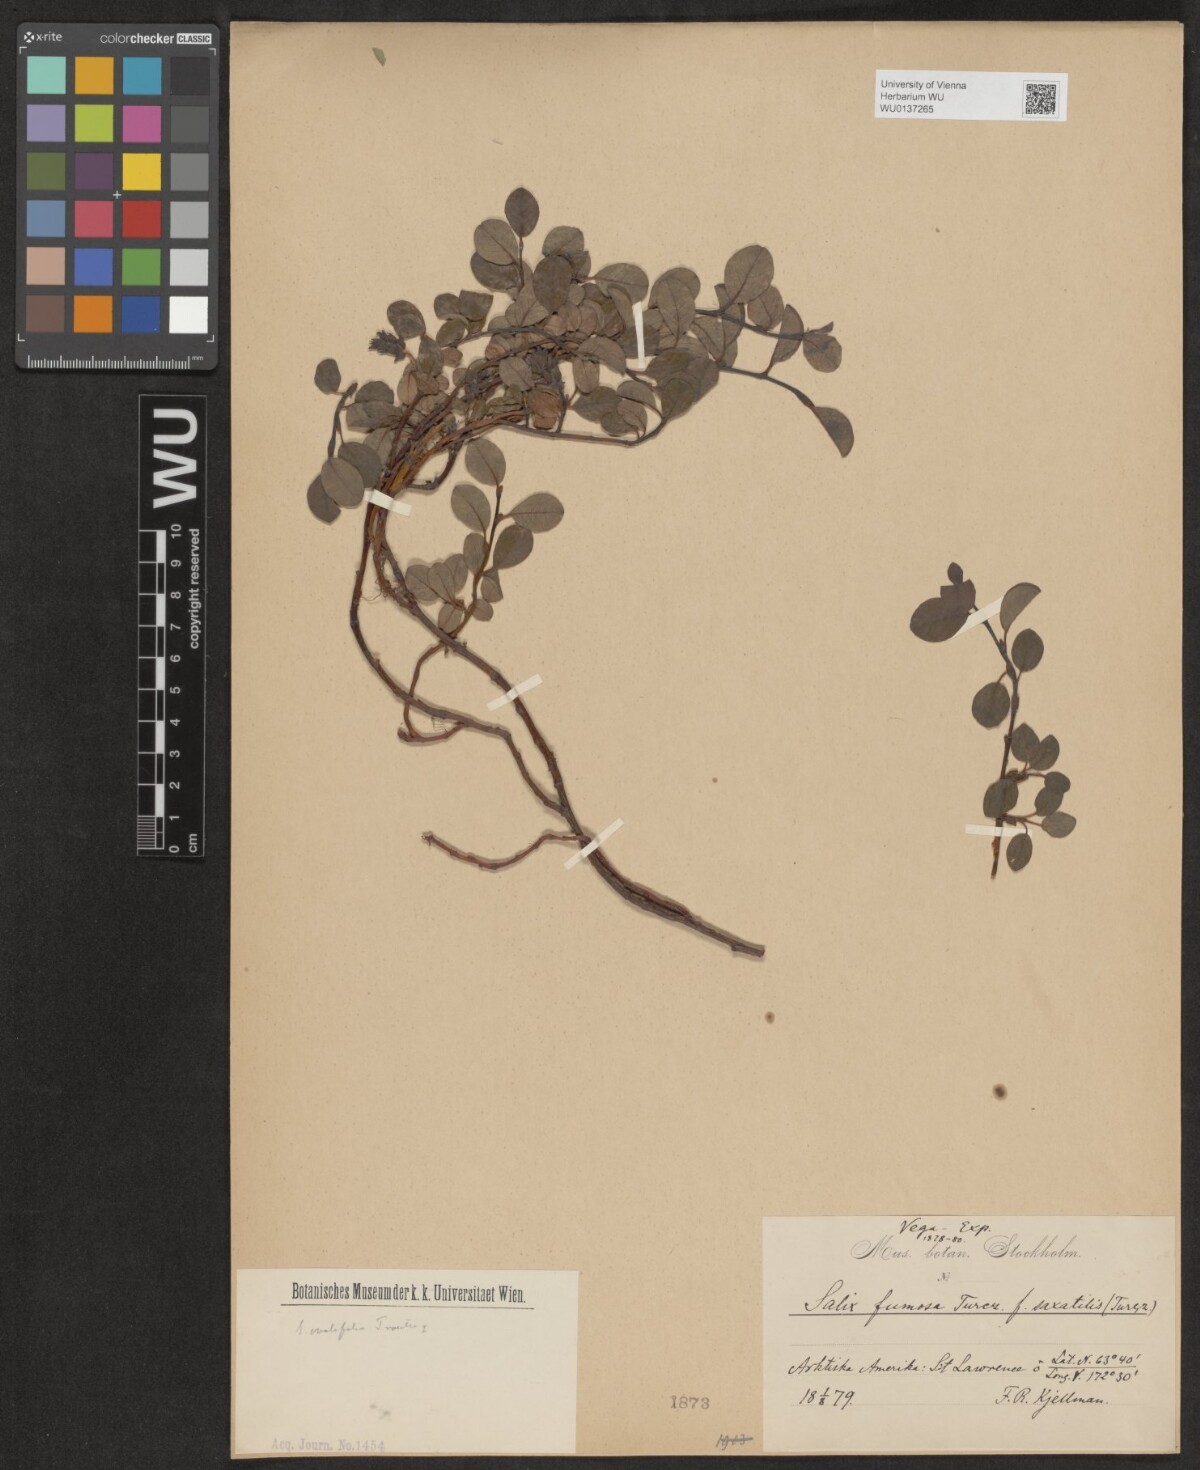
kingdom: Plantae
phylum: Tracheophyta
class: Magnoliopsida
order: Malpighiales
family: Salicaceae
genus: Salix
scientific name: Salix saxatilis
